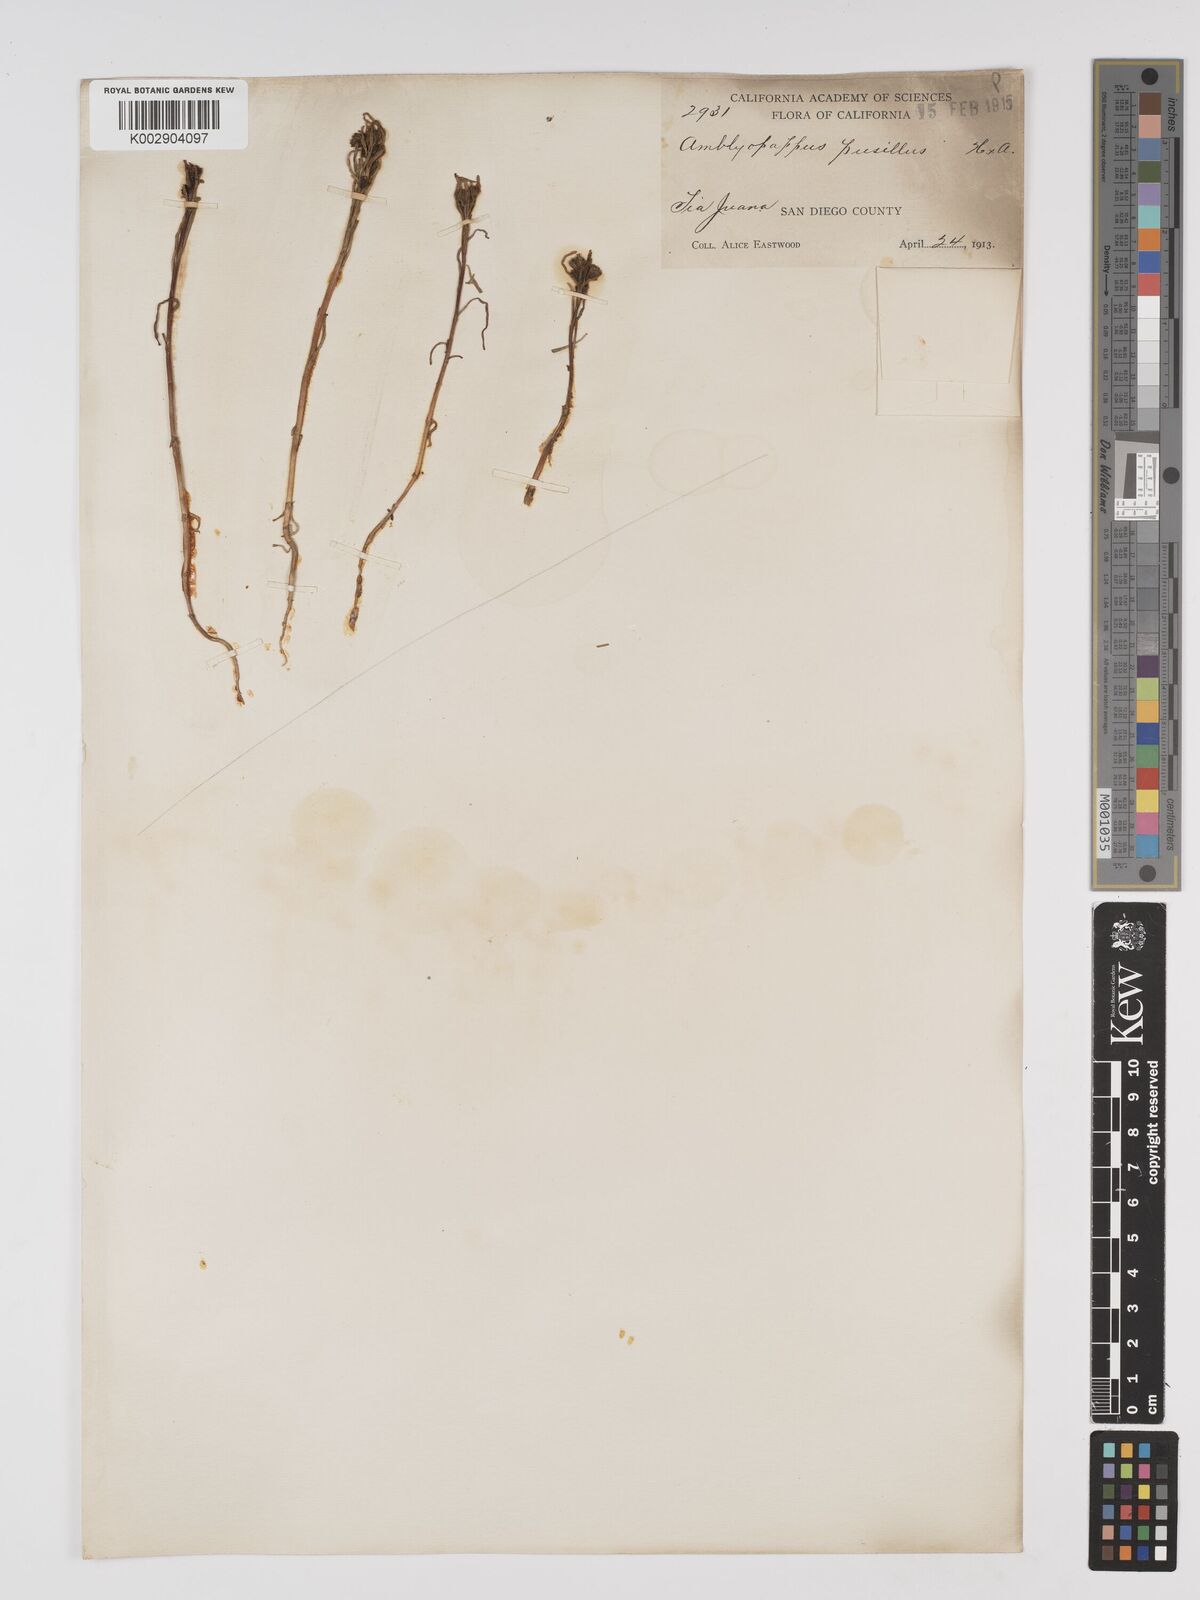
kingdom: Plantae
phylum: Tracheophyta
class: Magnoliopsida
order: Asterales
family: Asteraceae
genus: Amblyopappus
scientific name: Amblyopappus pusillus
